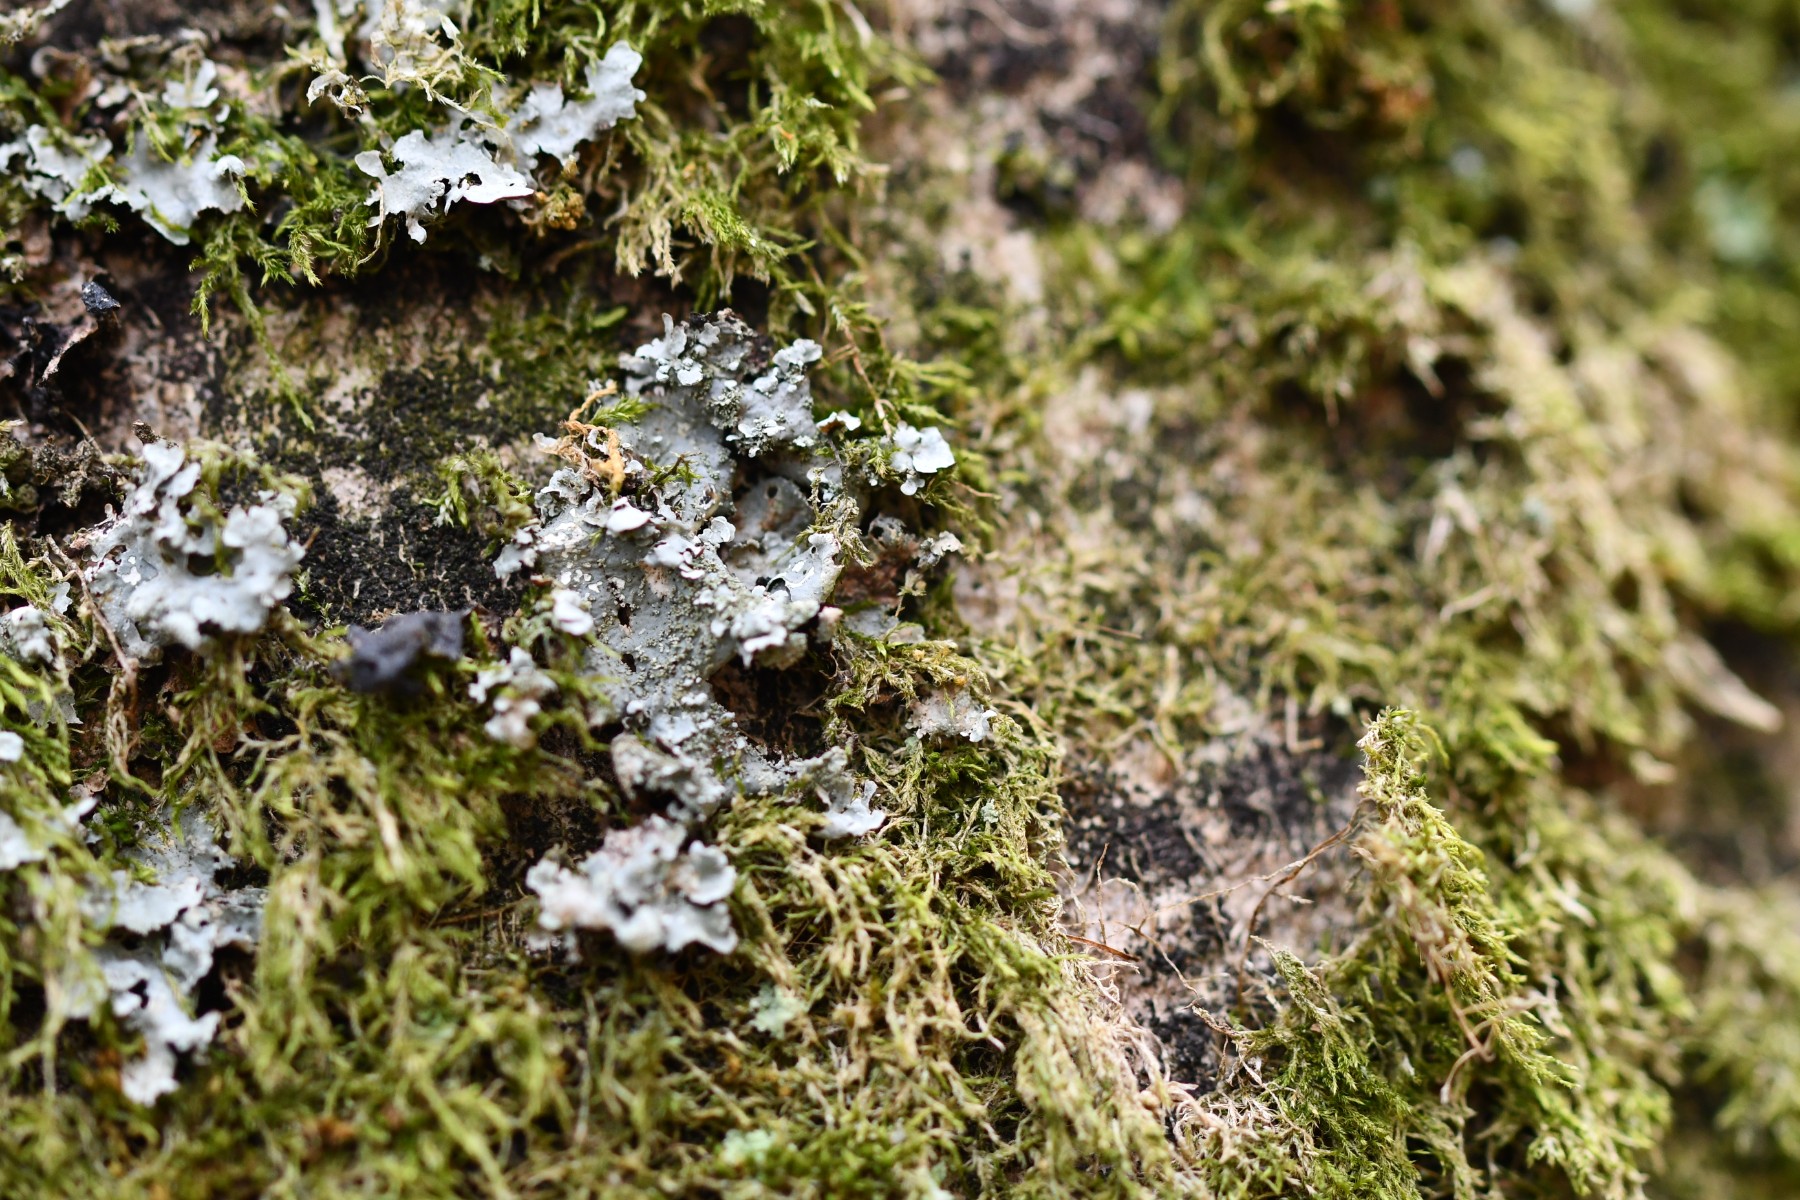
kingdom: Fungi
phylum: Ascomycota
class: Lecanoromycetes
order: Lecanorales
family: Parmeliaceae
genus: Parmelia
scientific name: Parmelia ernstiae
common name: rimstift-skållav
